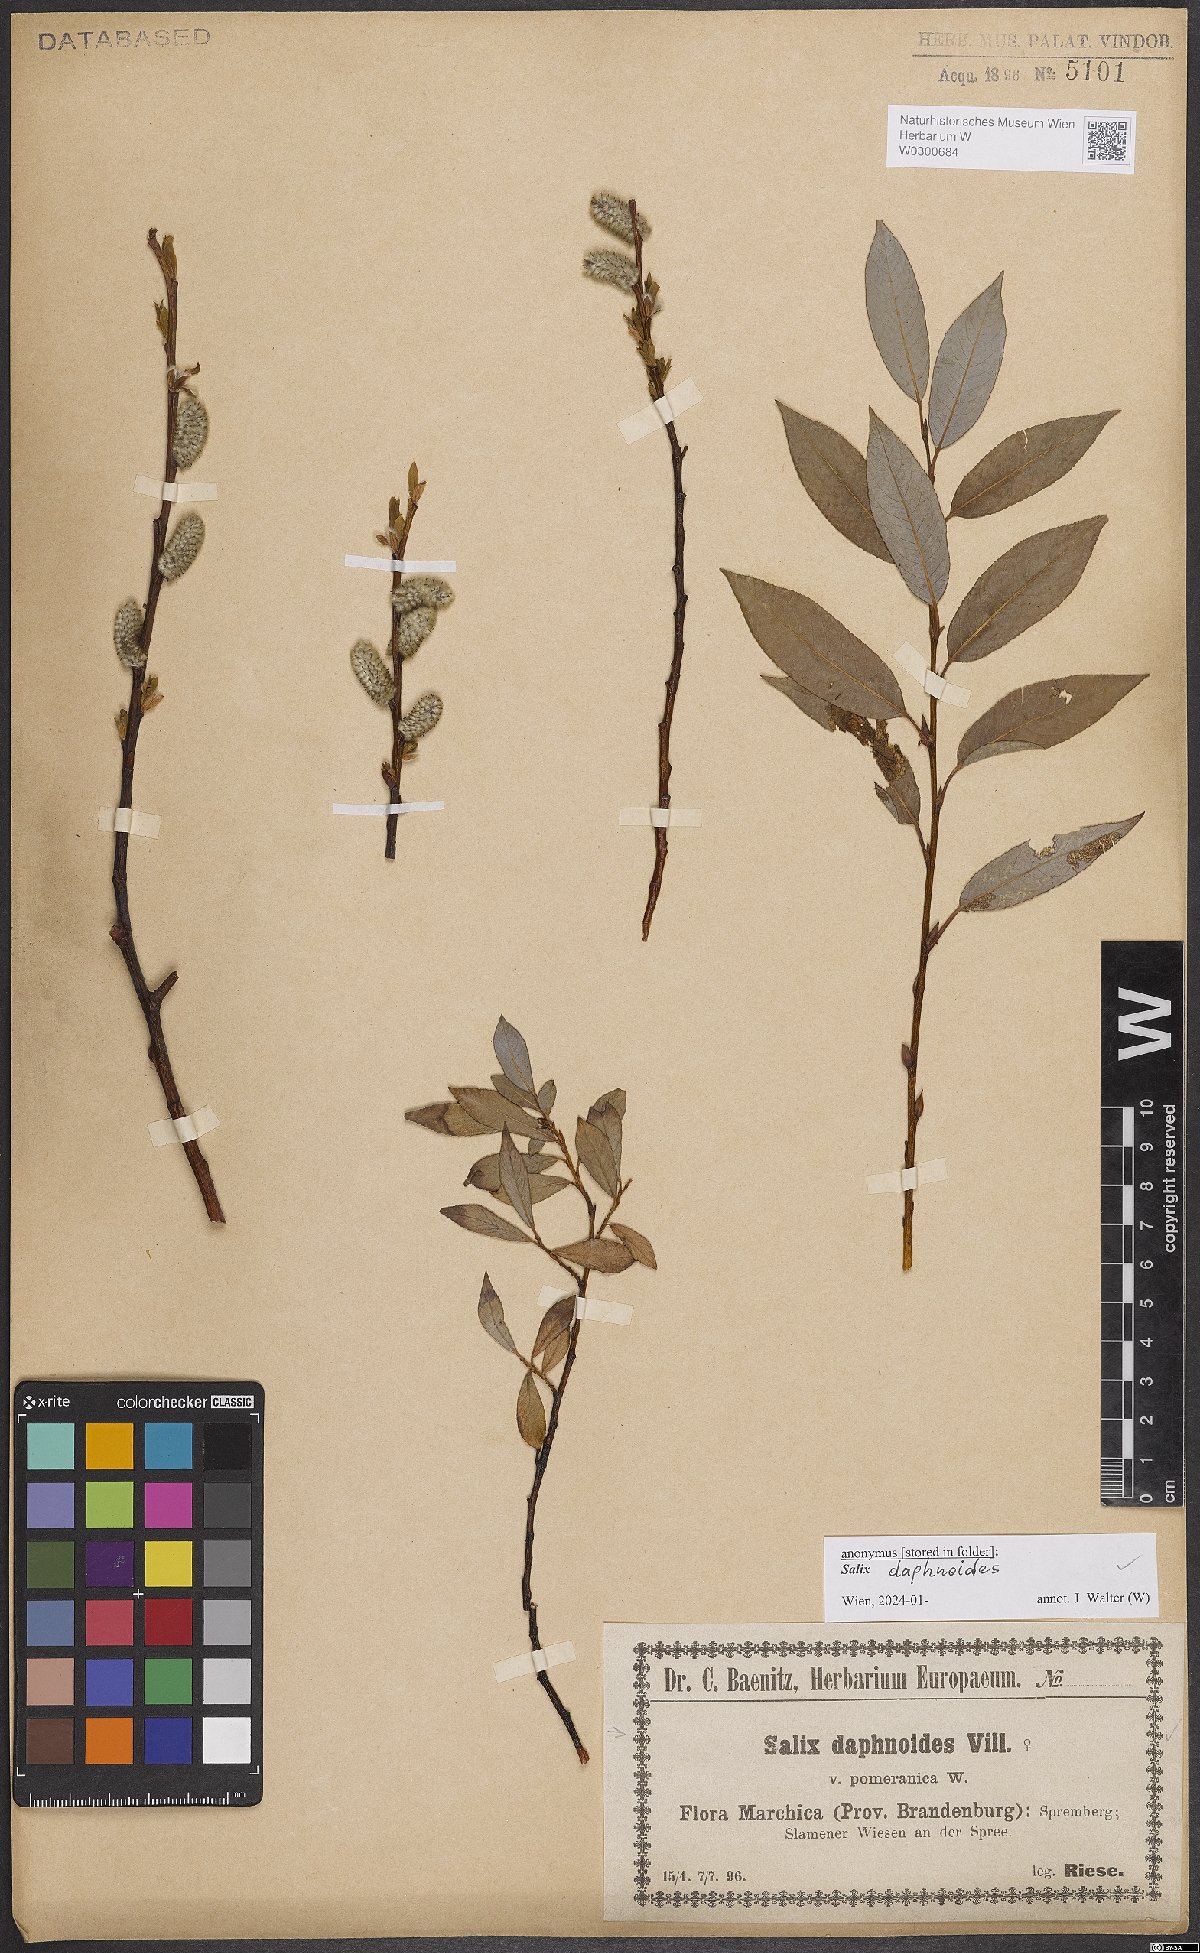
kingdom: Plantae
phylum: Tracheophyta
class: Magnoliopsida
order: Malpighiales
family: Salicaceae
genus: Salix
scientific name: Salix daphnoides
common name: European violet-willow
